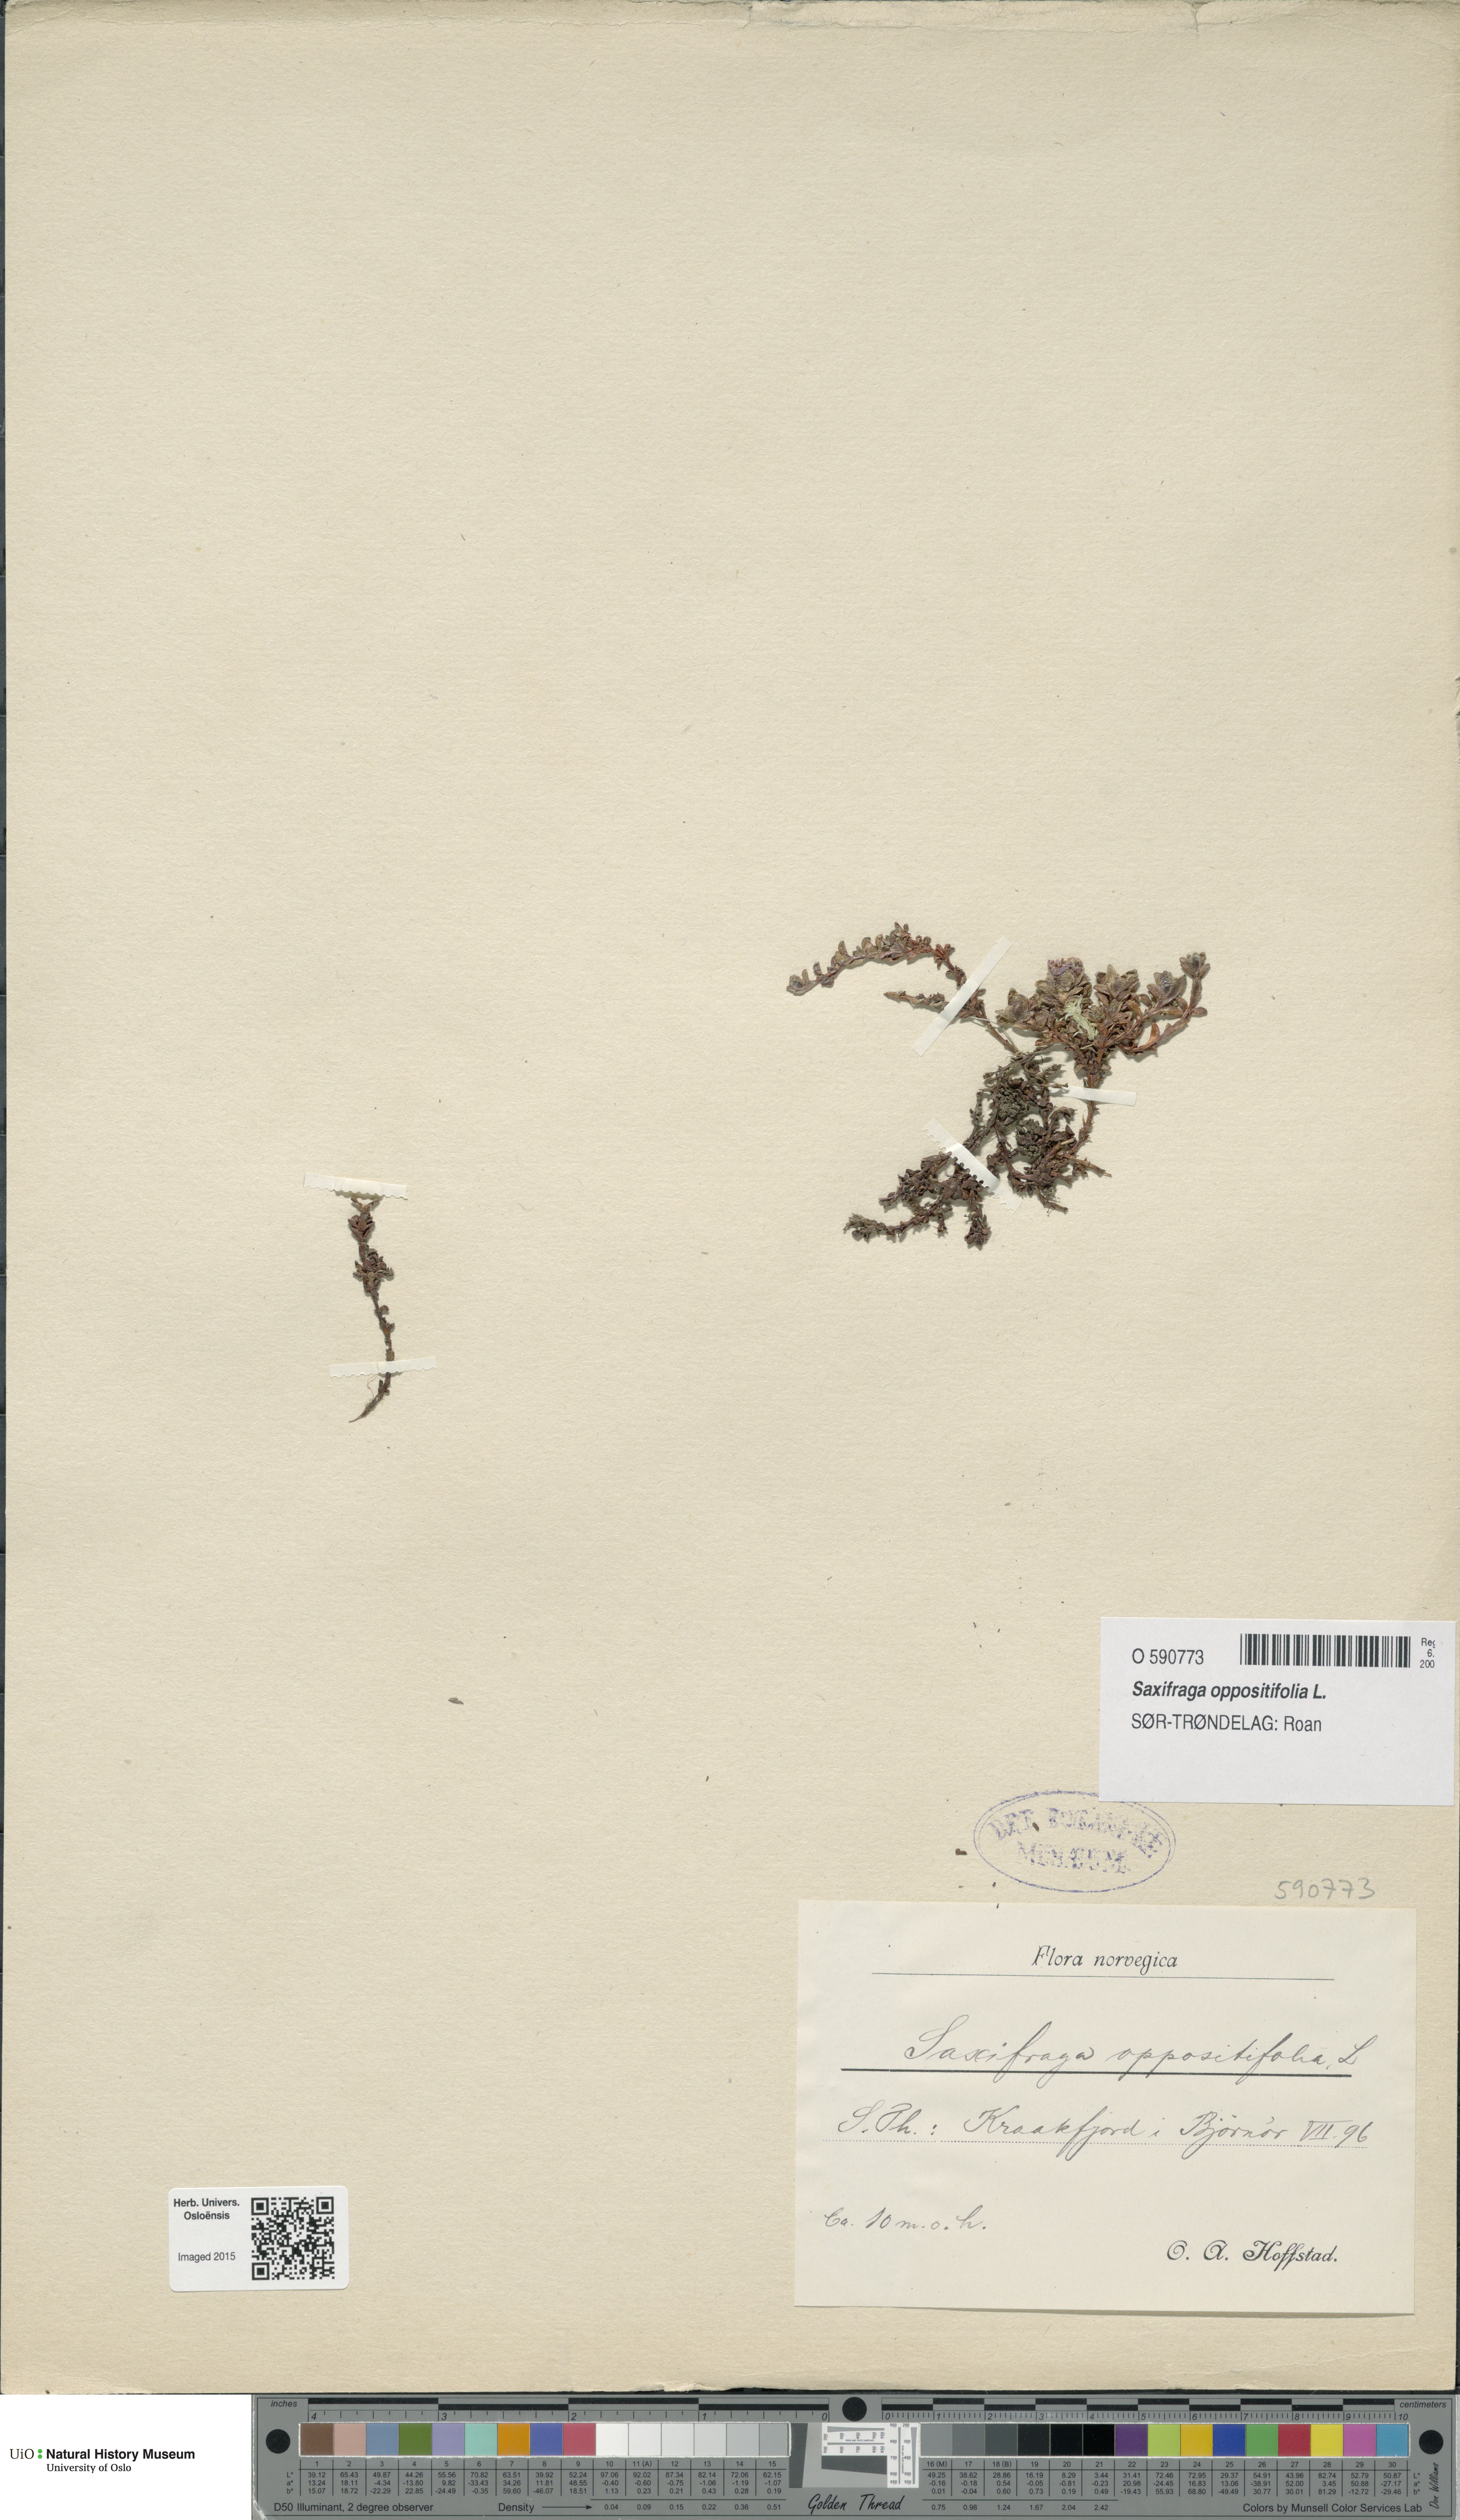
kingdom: Plantae
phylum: Tracheophyta
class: Magnoliopsida
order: Saxifragales
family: Saxifragaceae
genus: Saxifraga
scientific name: Saxifraga oppositifolia
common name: Purple saxifrage
